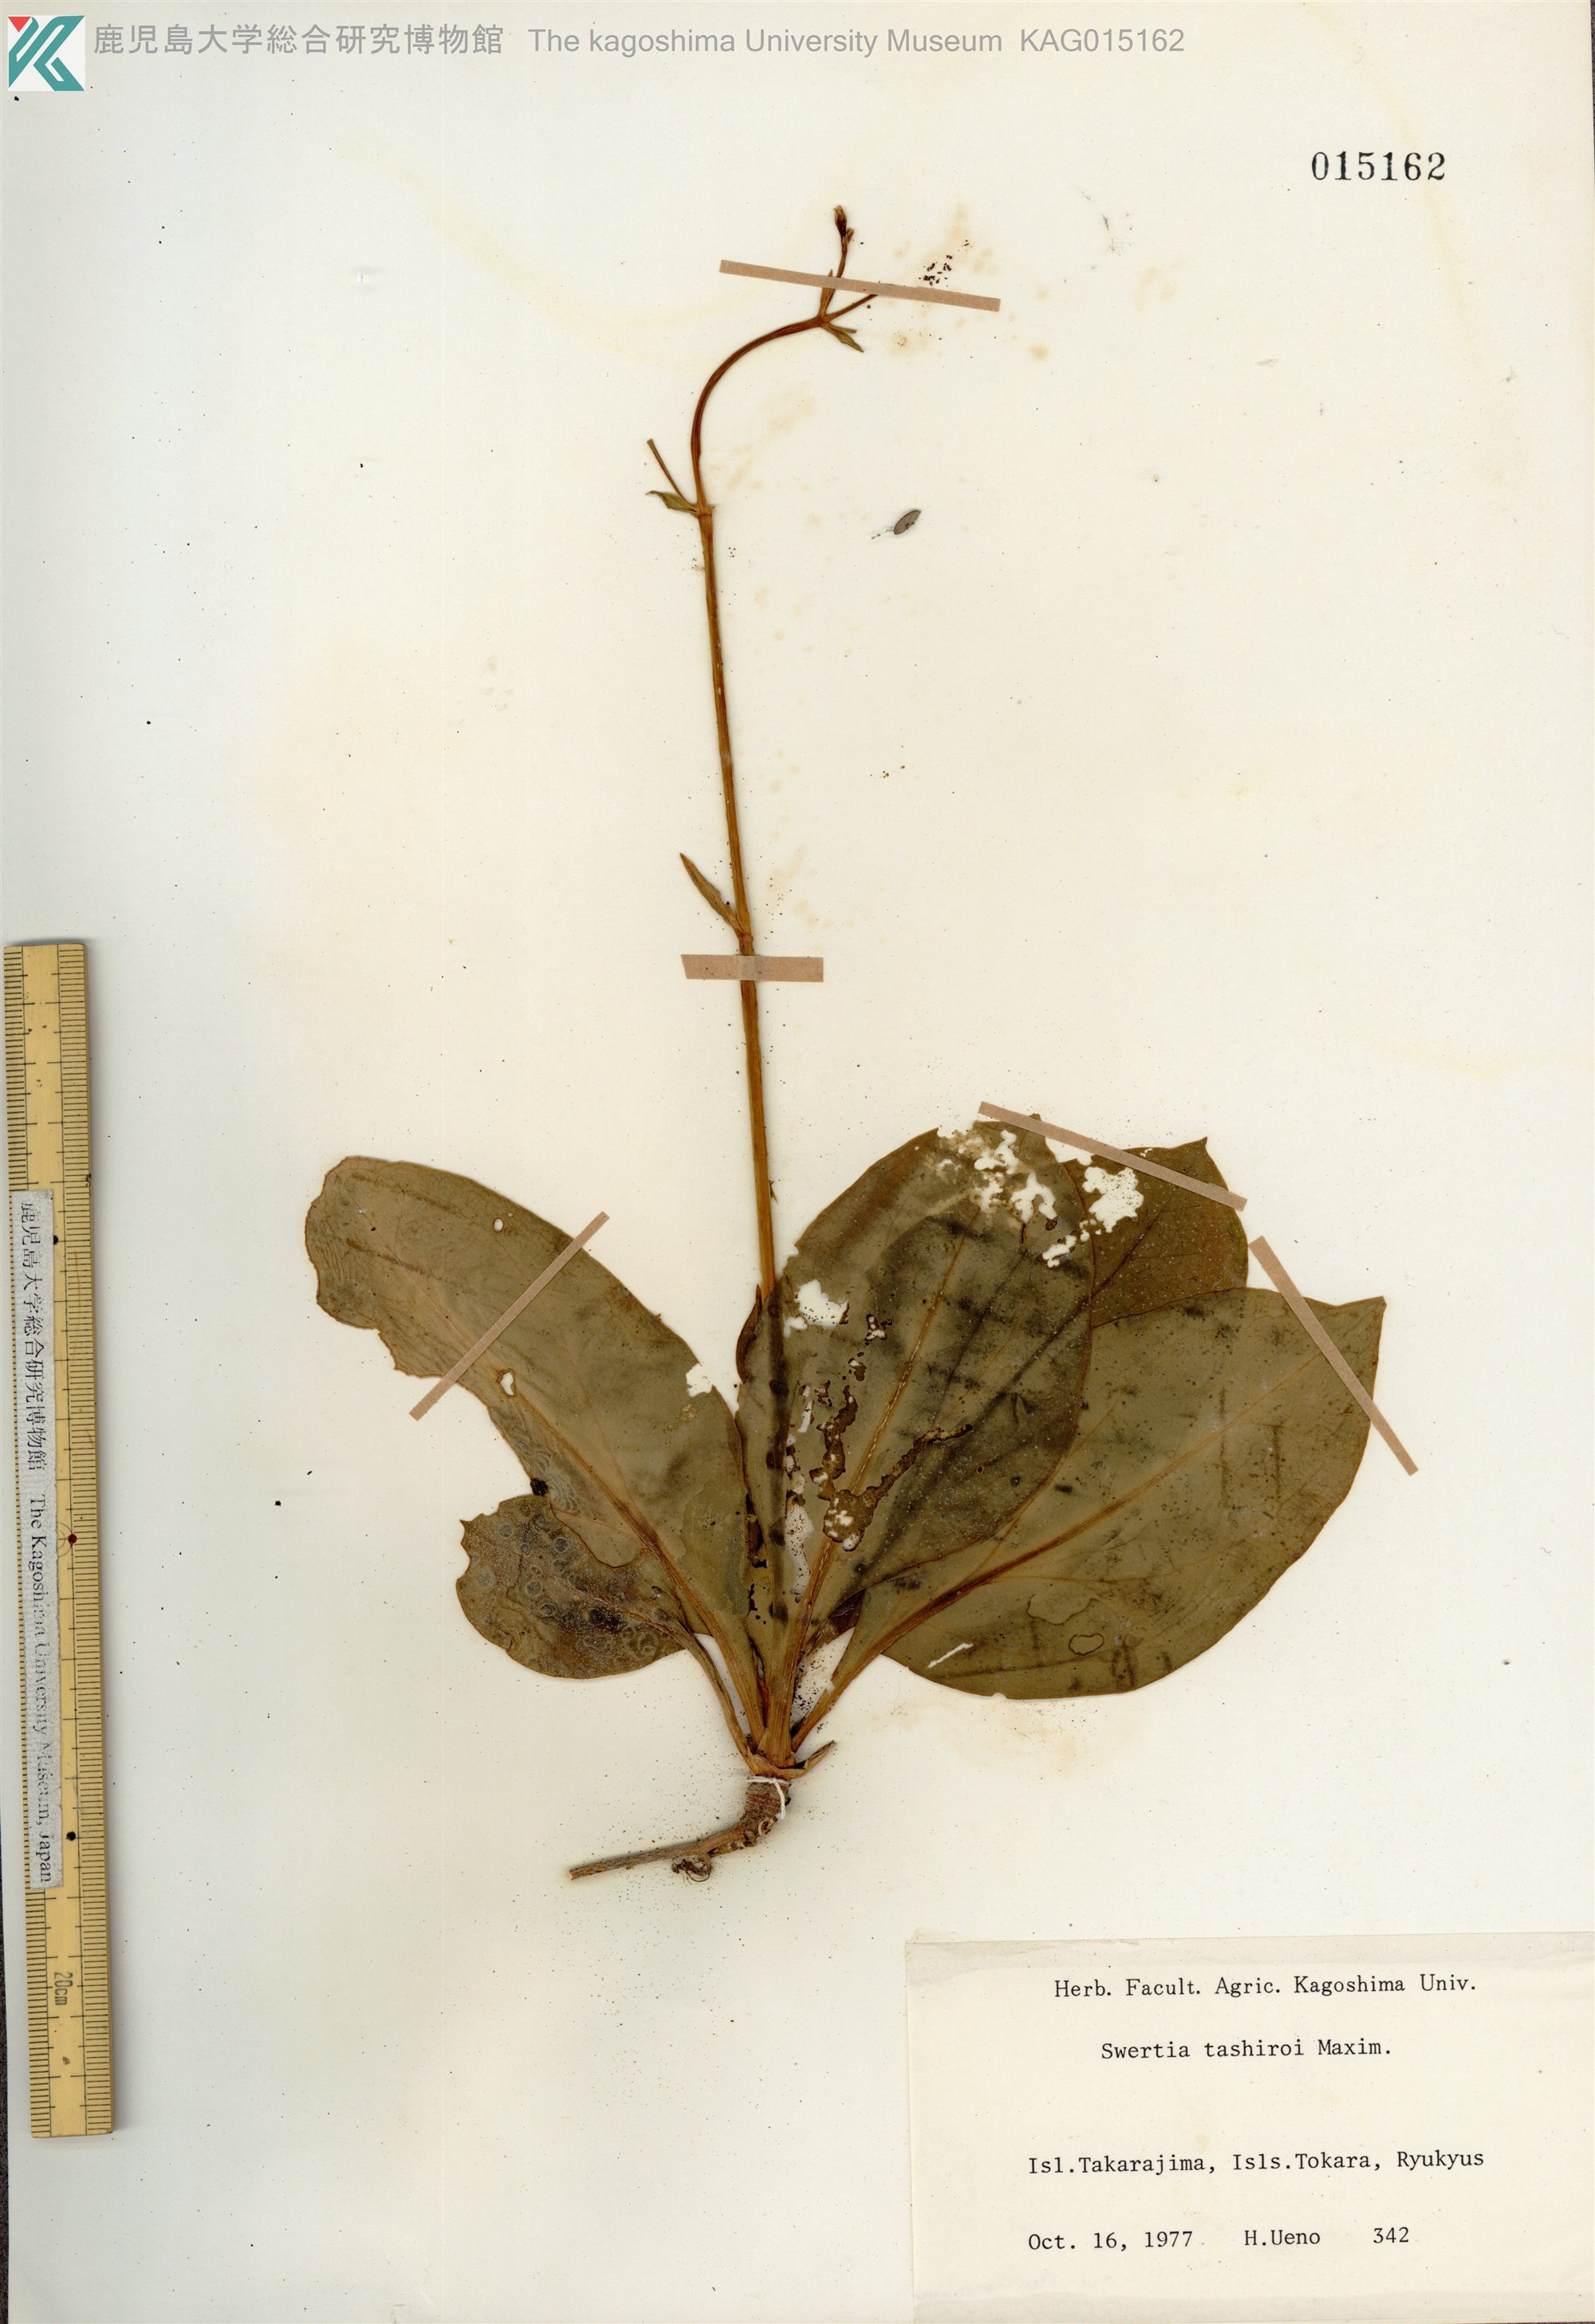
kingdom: Plantae
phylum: Tracheophyta
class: Magnoliopsida
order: Gentianales
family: Gentianaceae
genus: Swertia
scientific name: Swertia tashiroi
